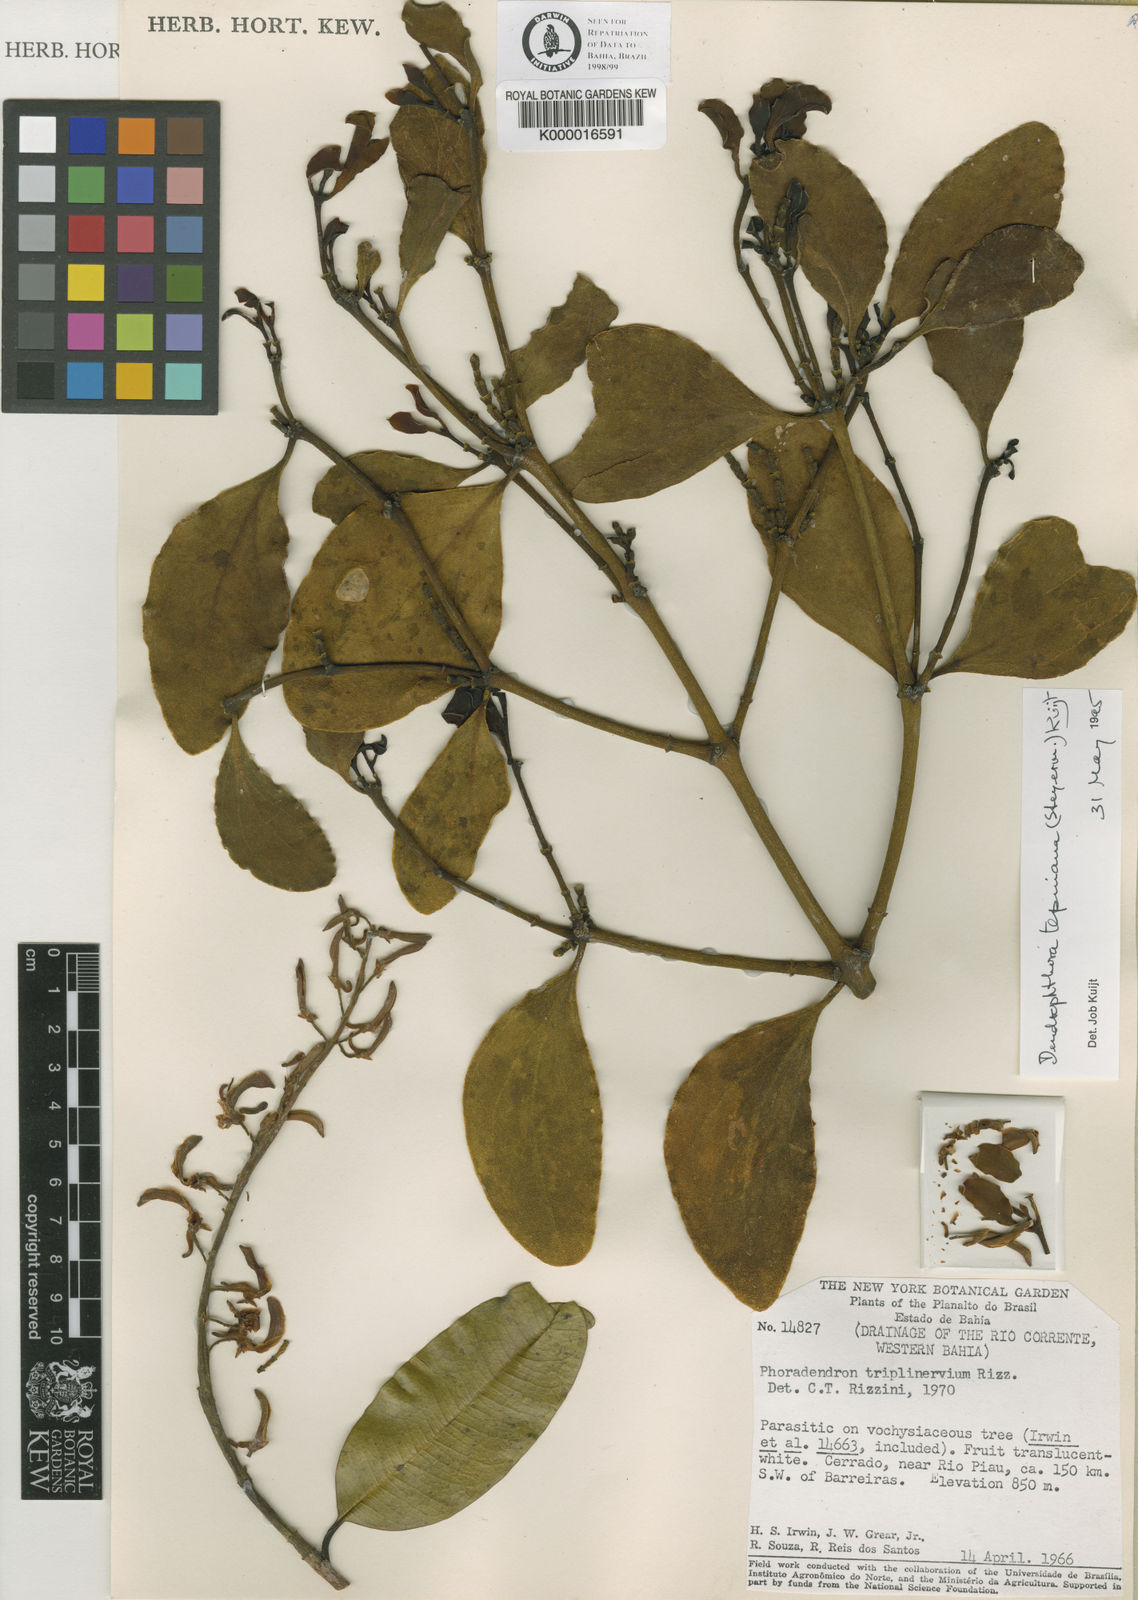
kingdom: Plantae
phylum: Tracheophyta
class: Magnoliopsida
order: Santalales
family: Viscaceae
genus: Dendrophthora
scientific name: Dendrophthora warmingii
